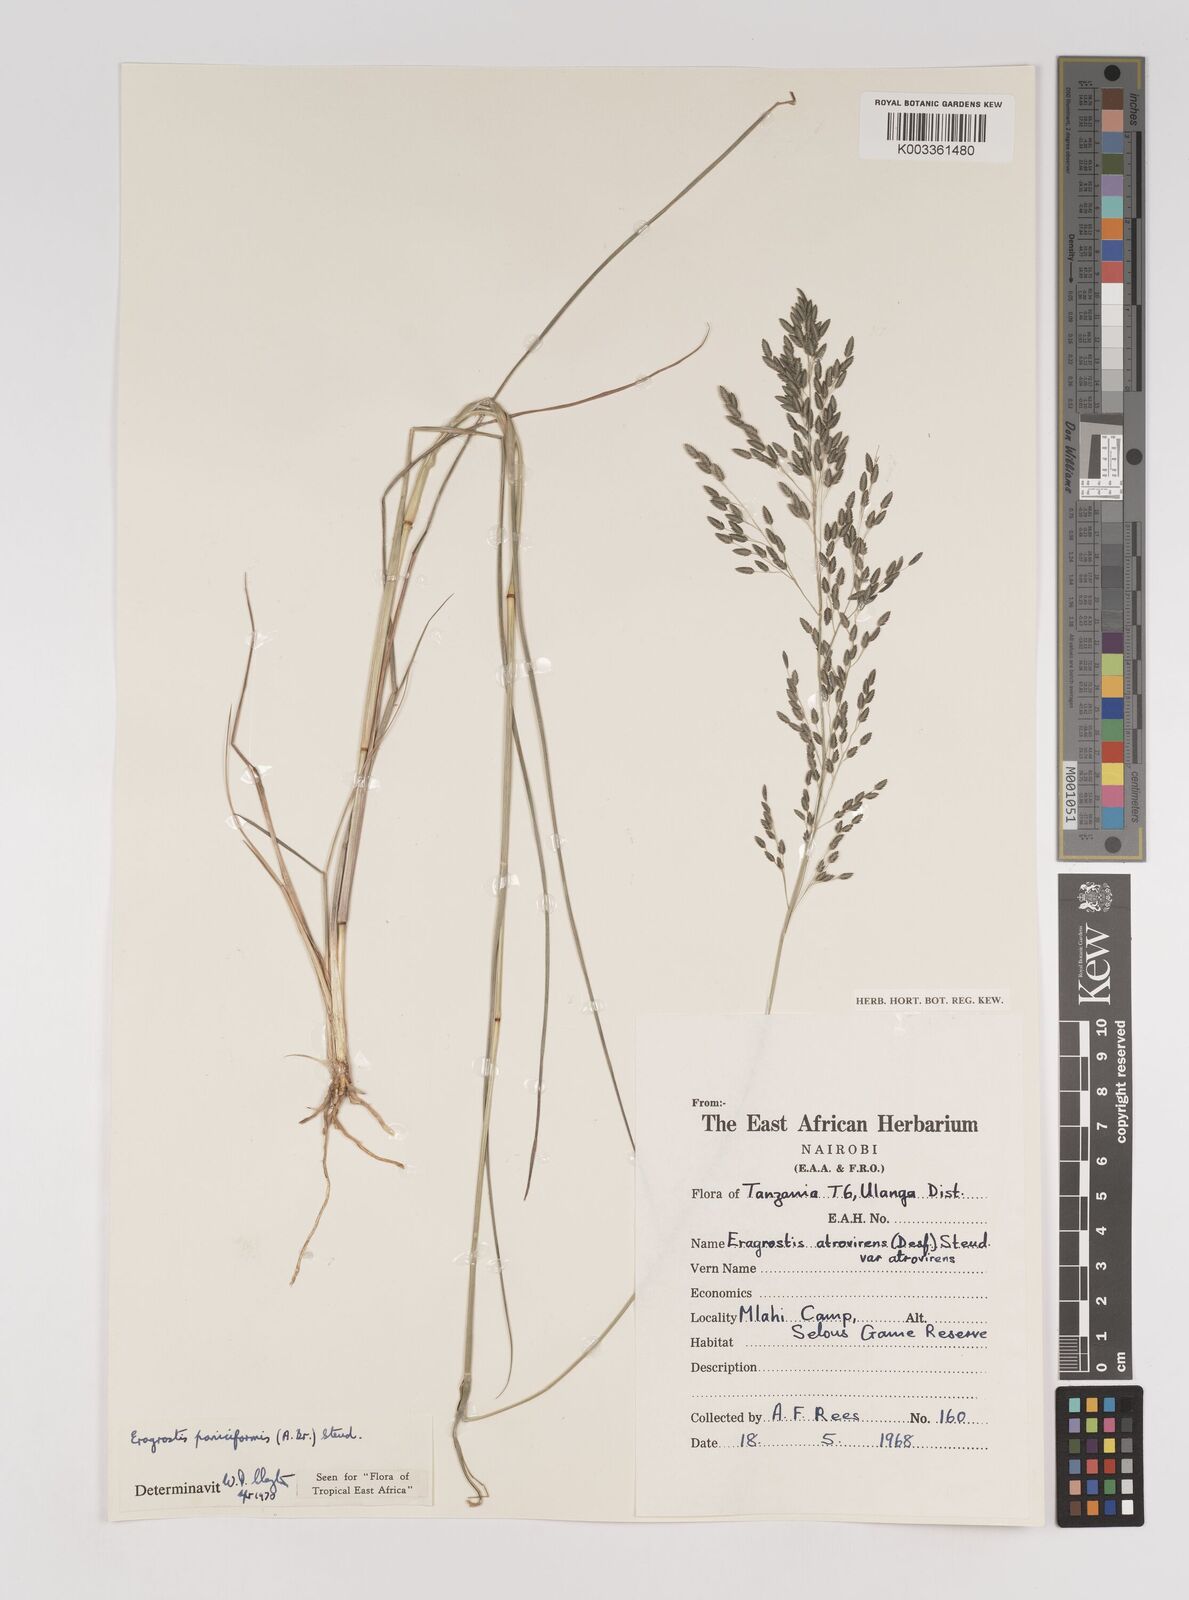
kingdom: Plantae
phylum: Tracheophyta
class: Liliopsida
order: Poales
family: Poaceae
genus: Eragrostis
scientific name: Eragrostis paniciformis
